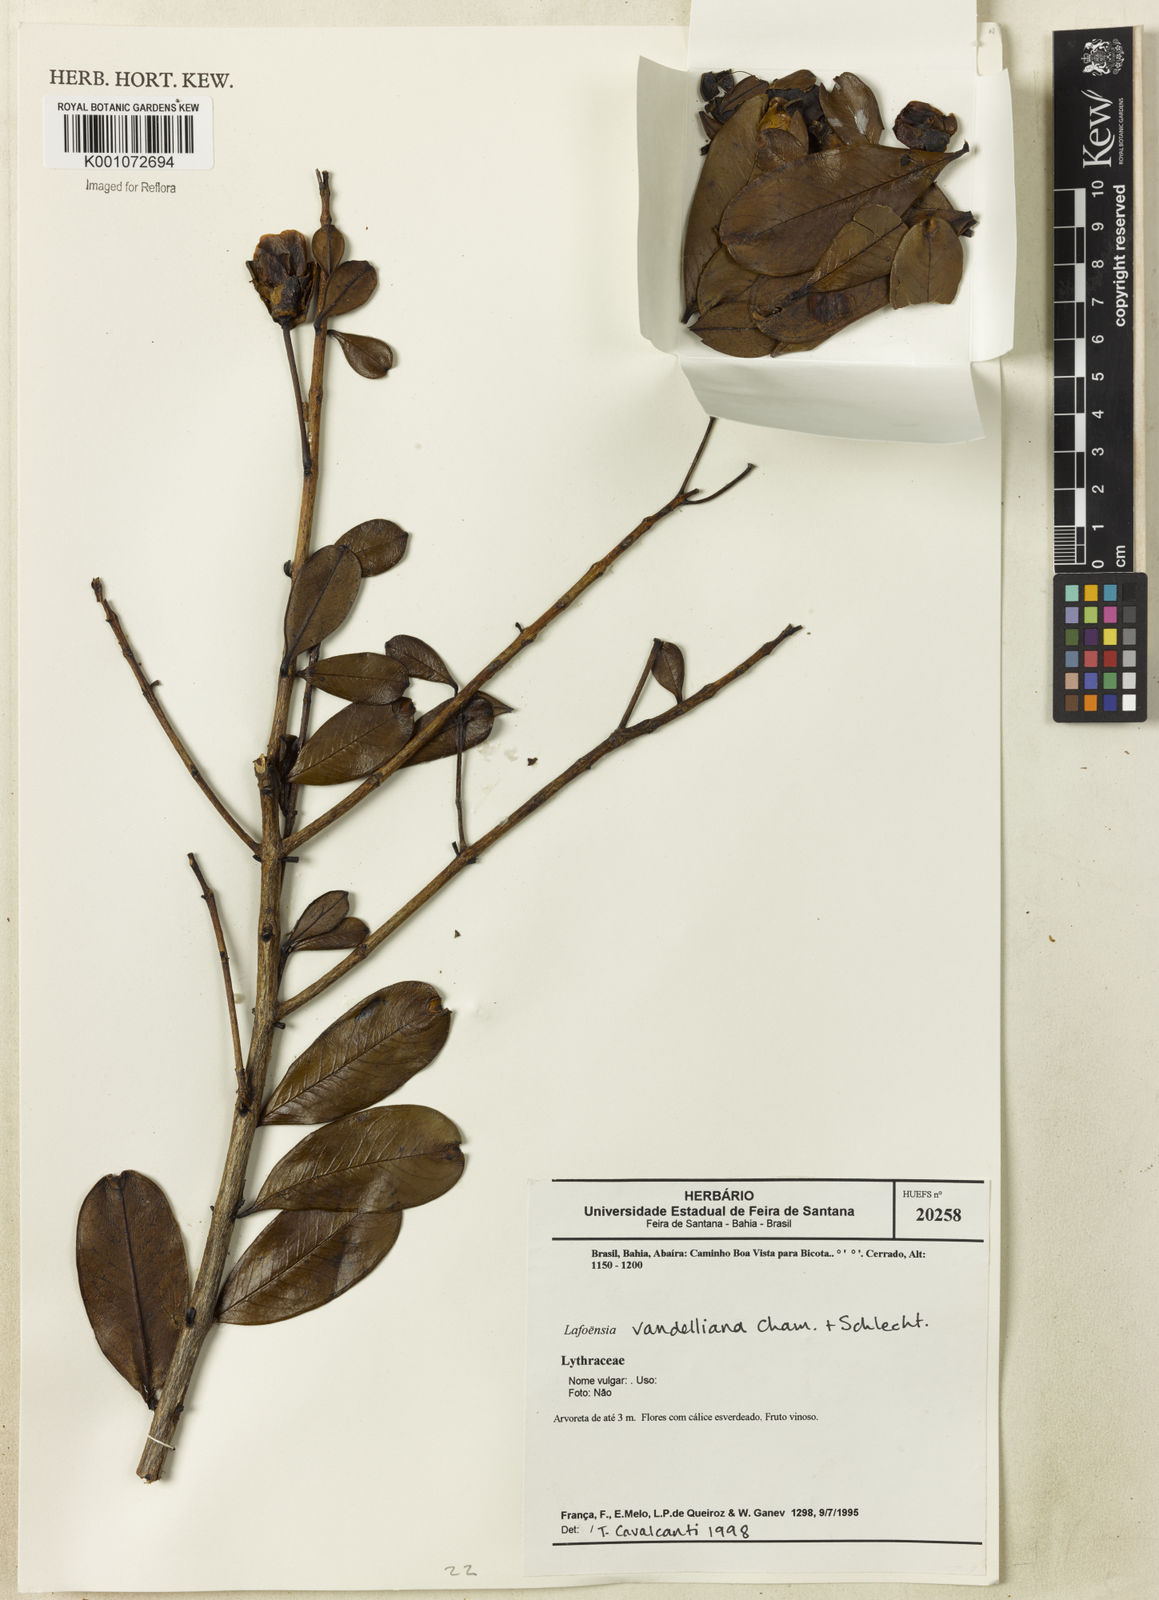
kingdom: Plantae
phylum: Tracheophyta
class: Magnoliopsida
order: Myrtales
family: Lythraceae
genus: Lafoensia
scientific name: Lafoensia vandelliana
